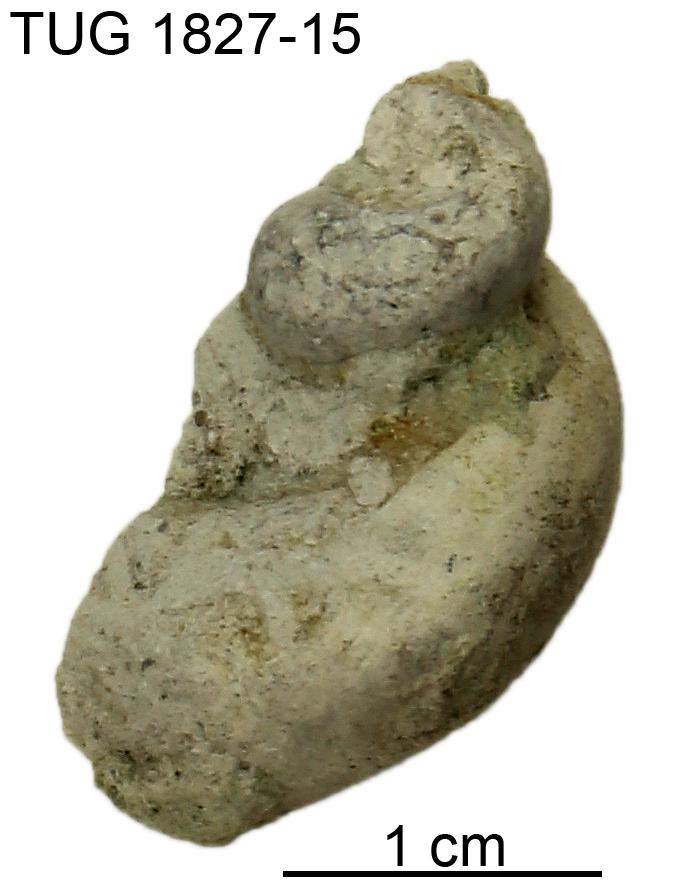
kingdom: Animalia
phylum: Mollusca
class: Gastropoda
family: Lophospiridae
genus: Loxoplocus
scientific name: Loxoplocus Worthenia vermetus
